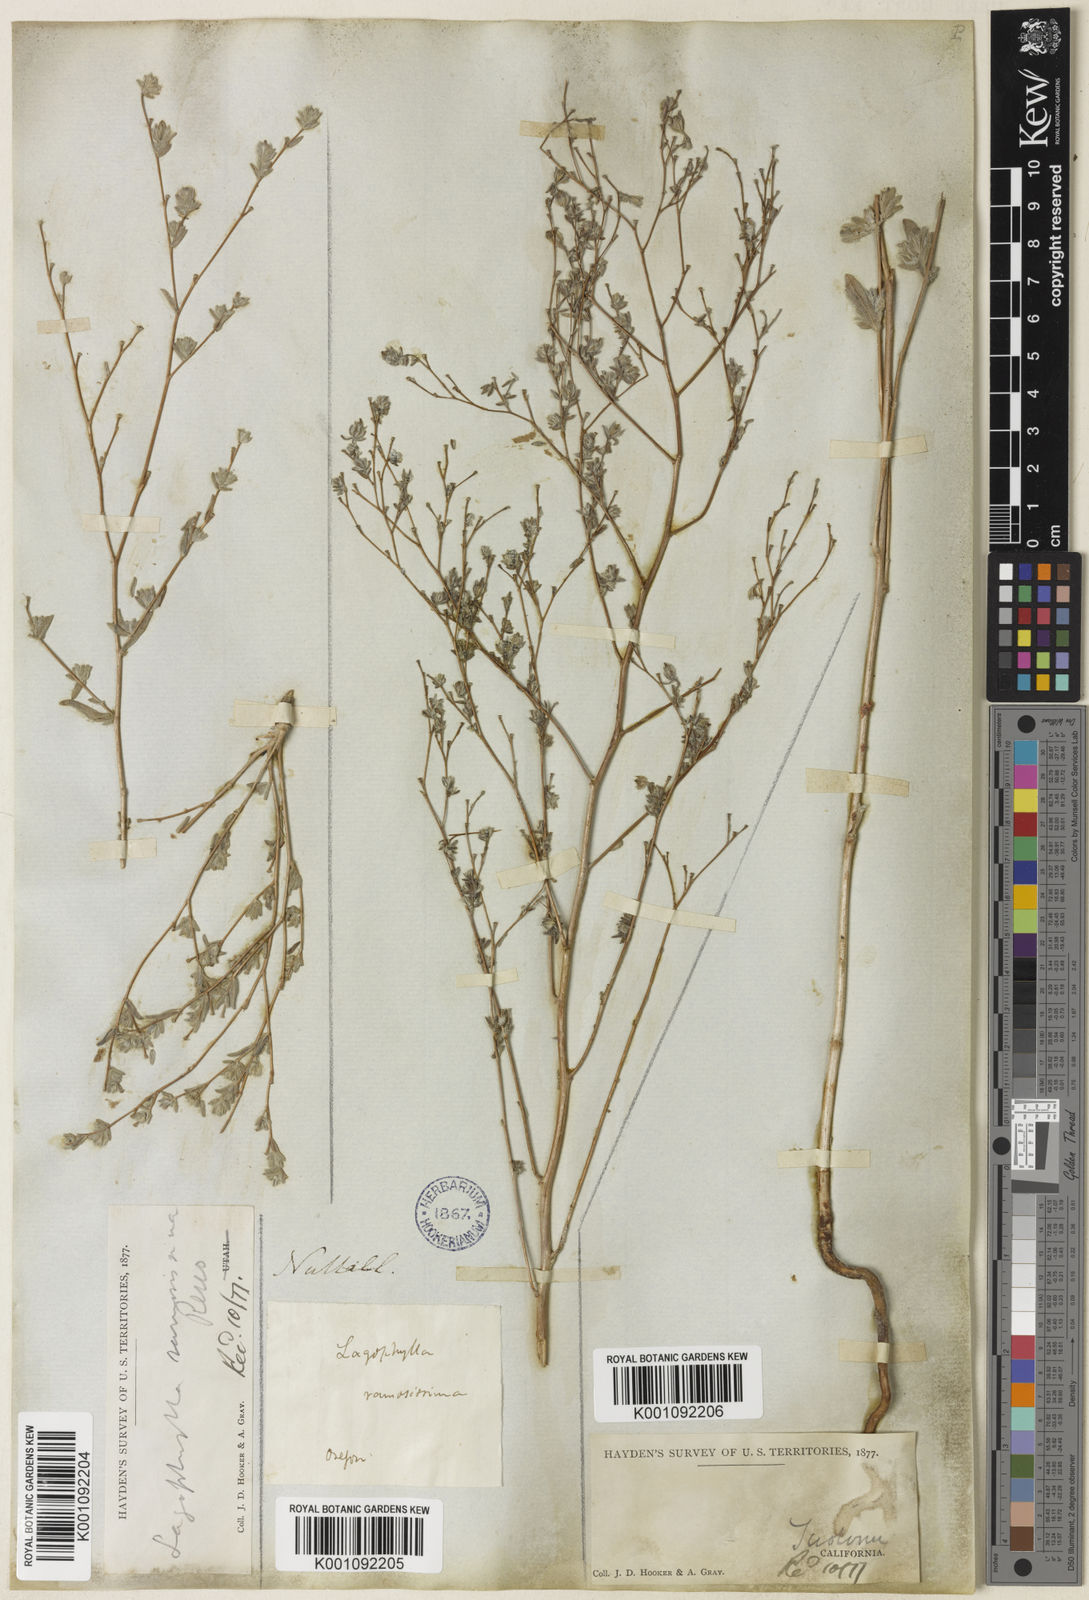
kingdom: Plantae
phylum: Tracheophyta
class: Magnoliopsida
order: Asterales
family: Asteraceae
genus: Lagophylla
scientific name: Lagophylla ramosissima
